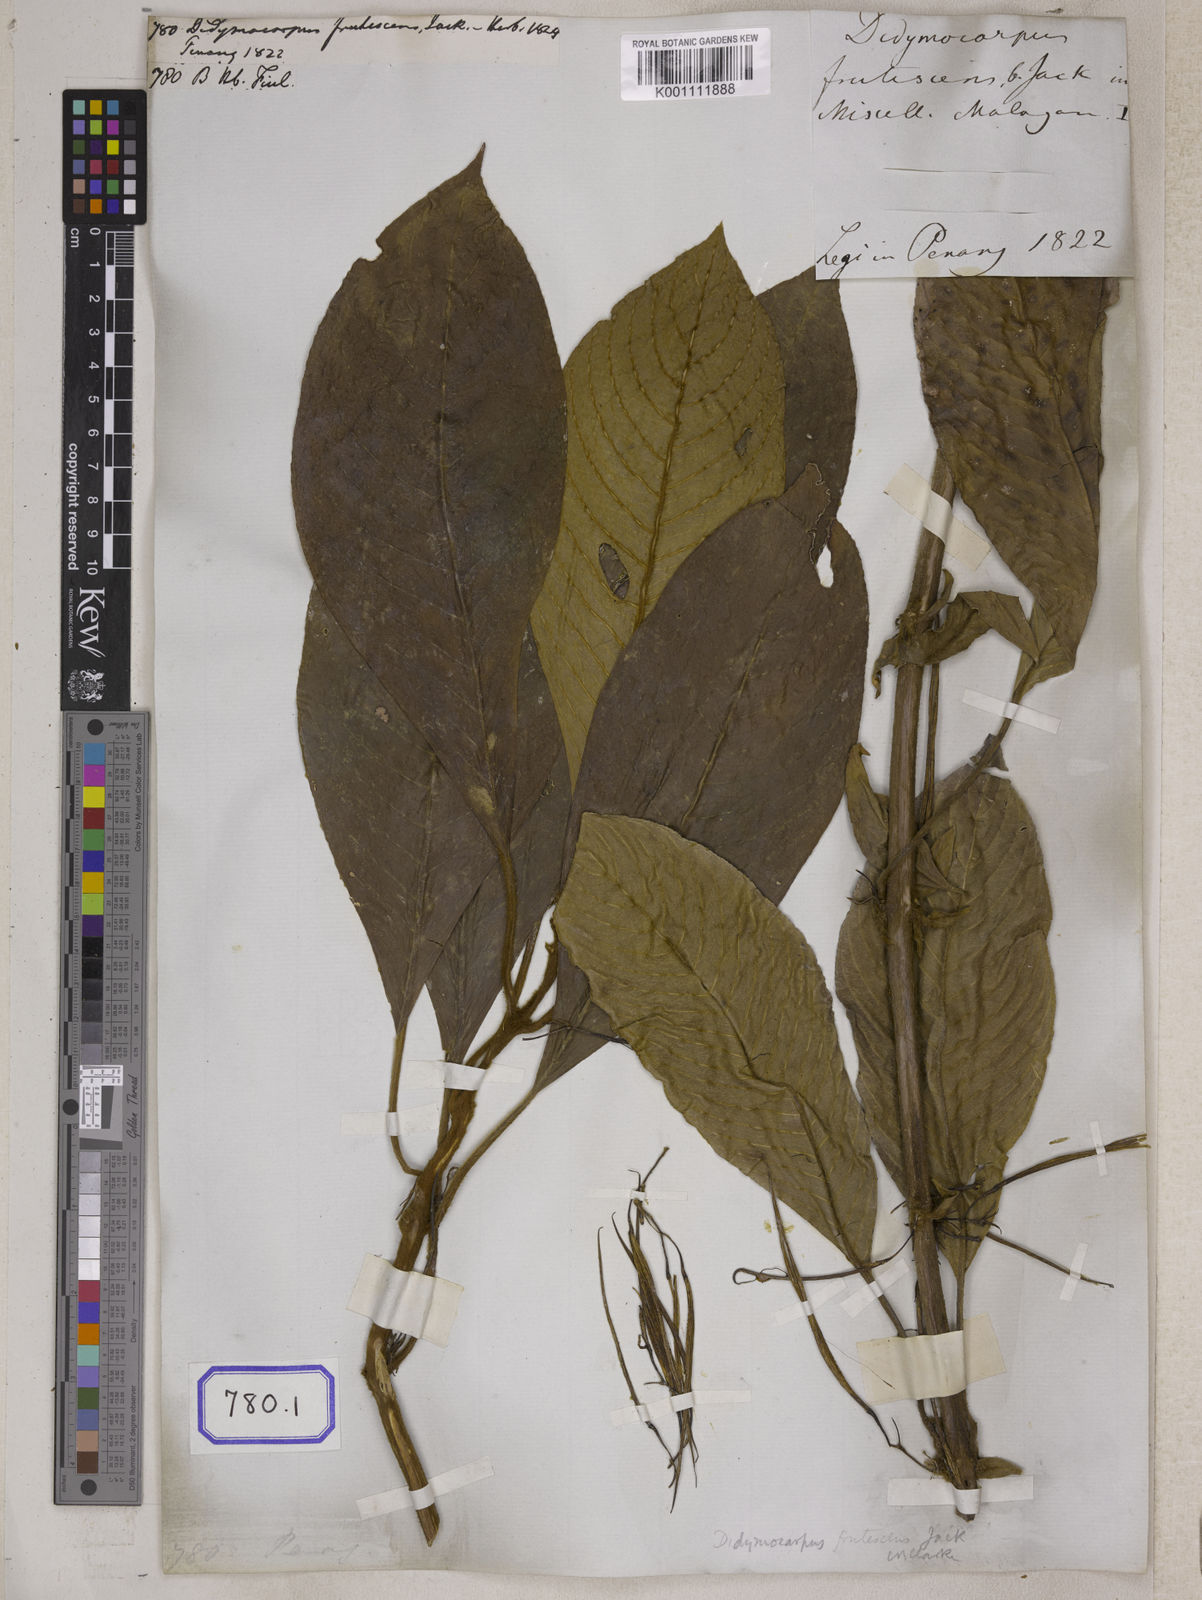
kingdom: Plantae
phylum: Tracheophyta
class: Magnoliopsida
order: Lamiales
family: Gesneriaceae
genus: Didissandra
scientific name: Didissandra frutescens
